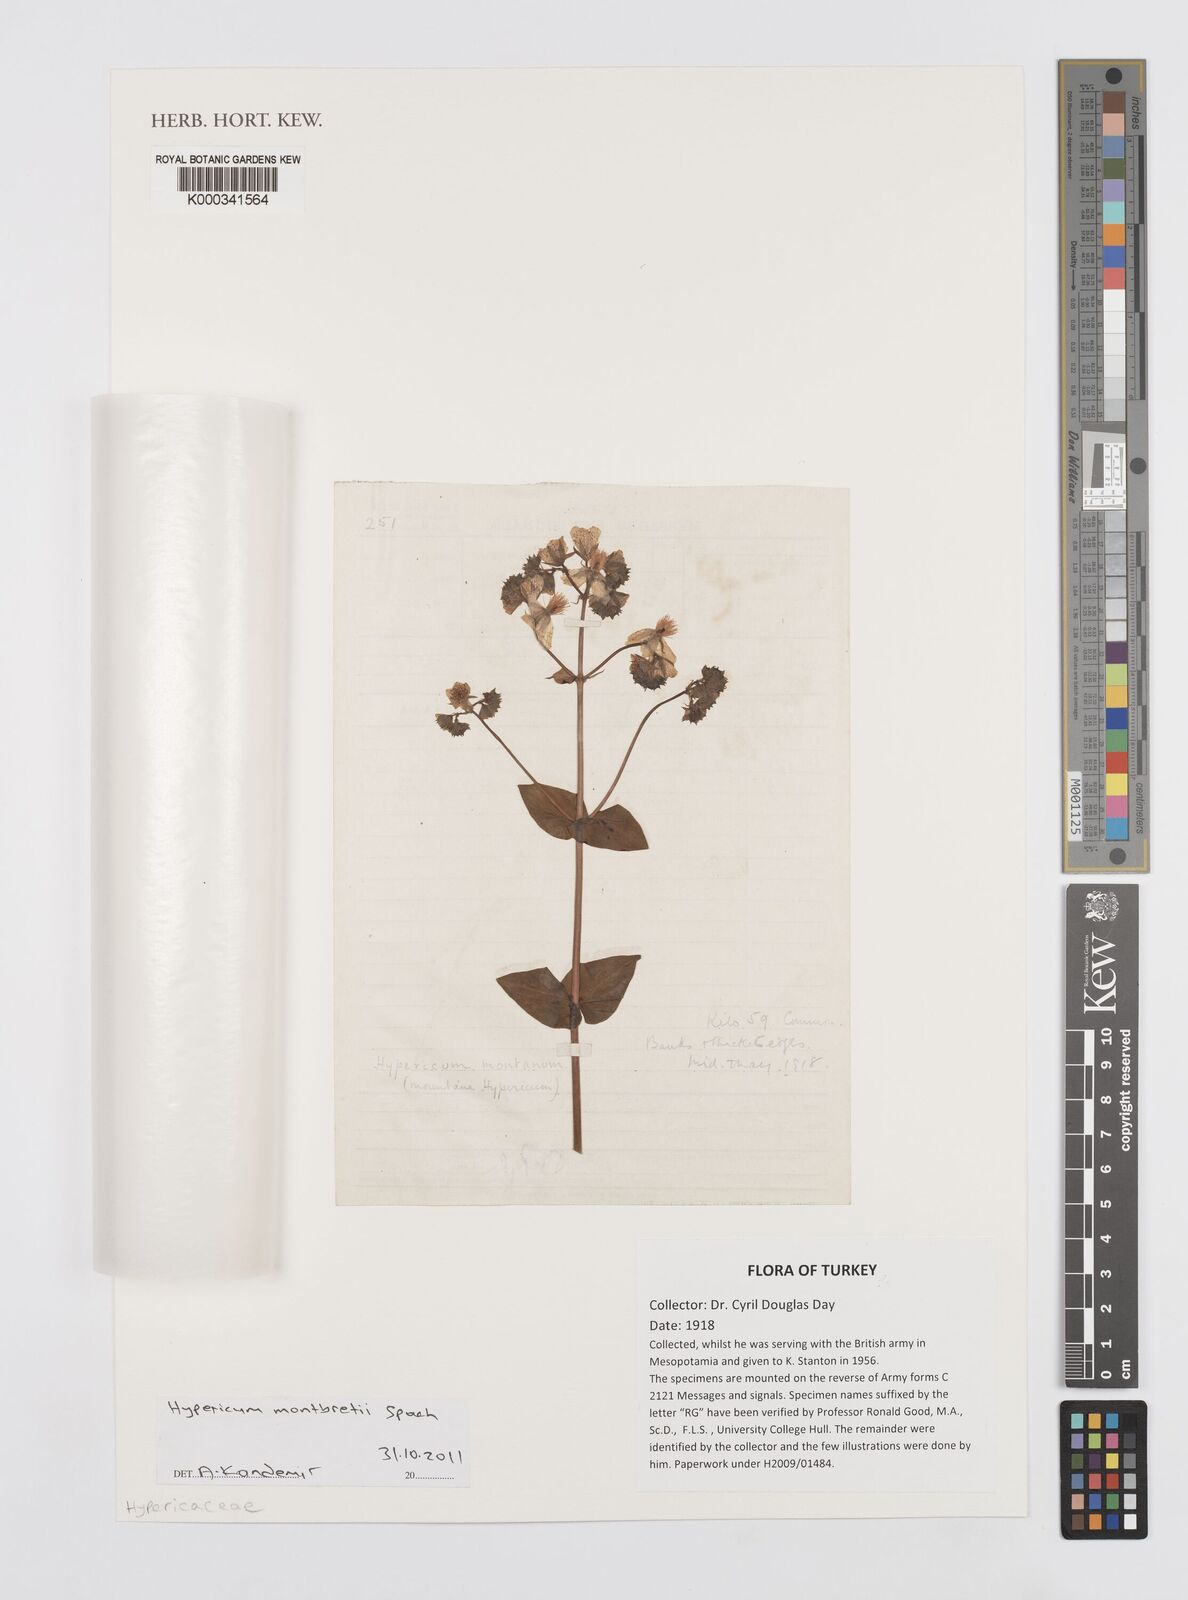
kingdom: Plantae
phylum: Tracheophyta
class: Magnoliopsida
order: Malpighiales
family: Hypericaceae
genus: Hypericum
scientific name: Hypericum montbretii
